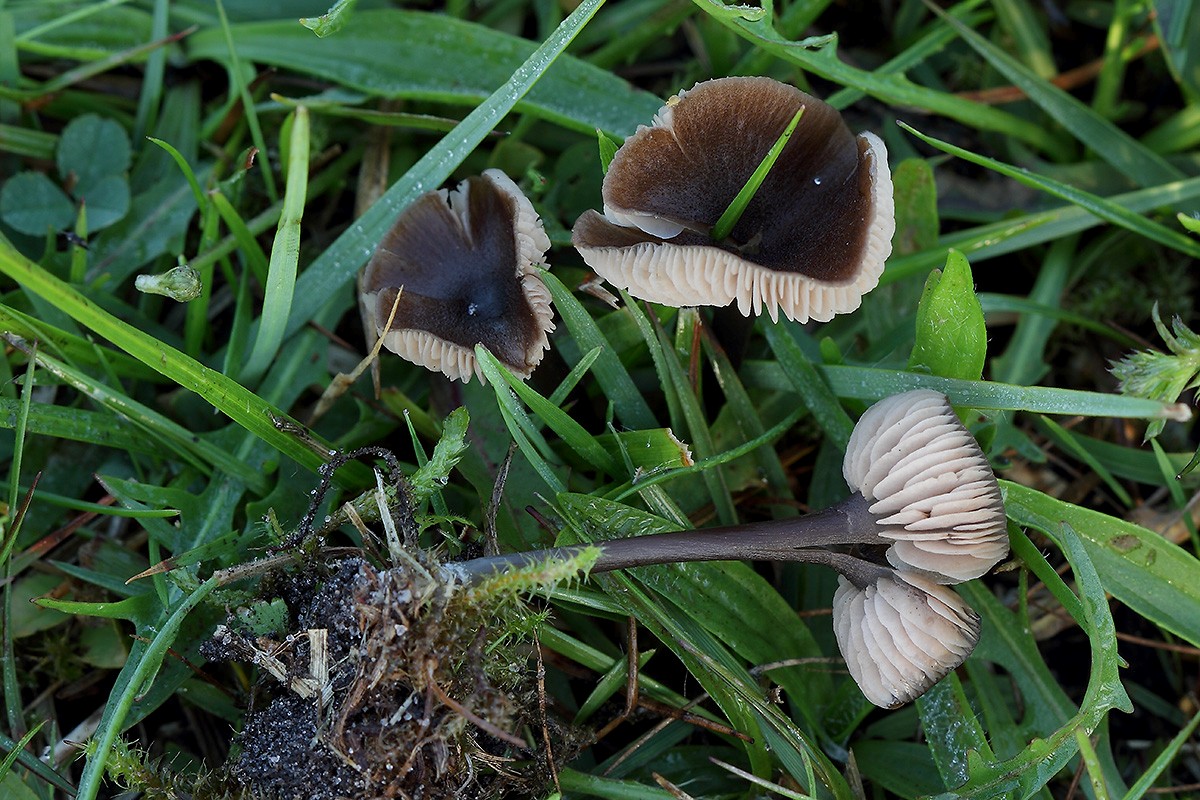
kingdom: Fungi
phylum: Basidiomycota
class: Agaricomycetes
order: Agaricales
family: Entolomataceae
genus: Entoloma
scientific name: Entoloma asprellum
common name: ru rødblad
